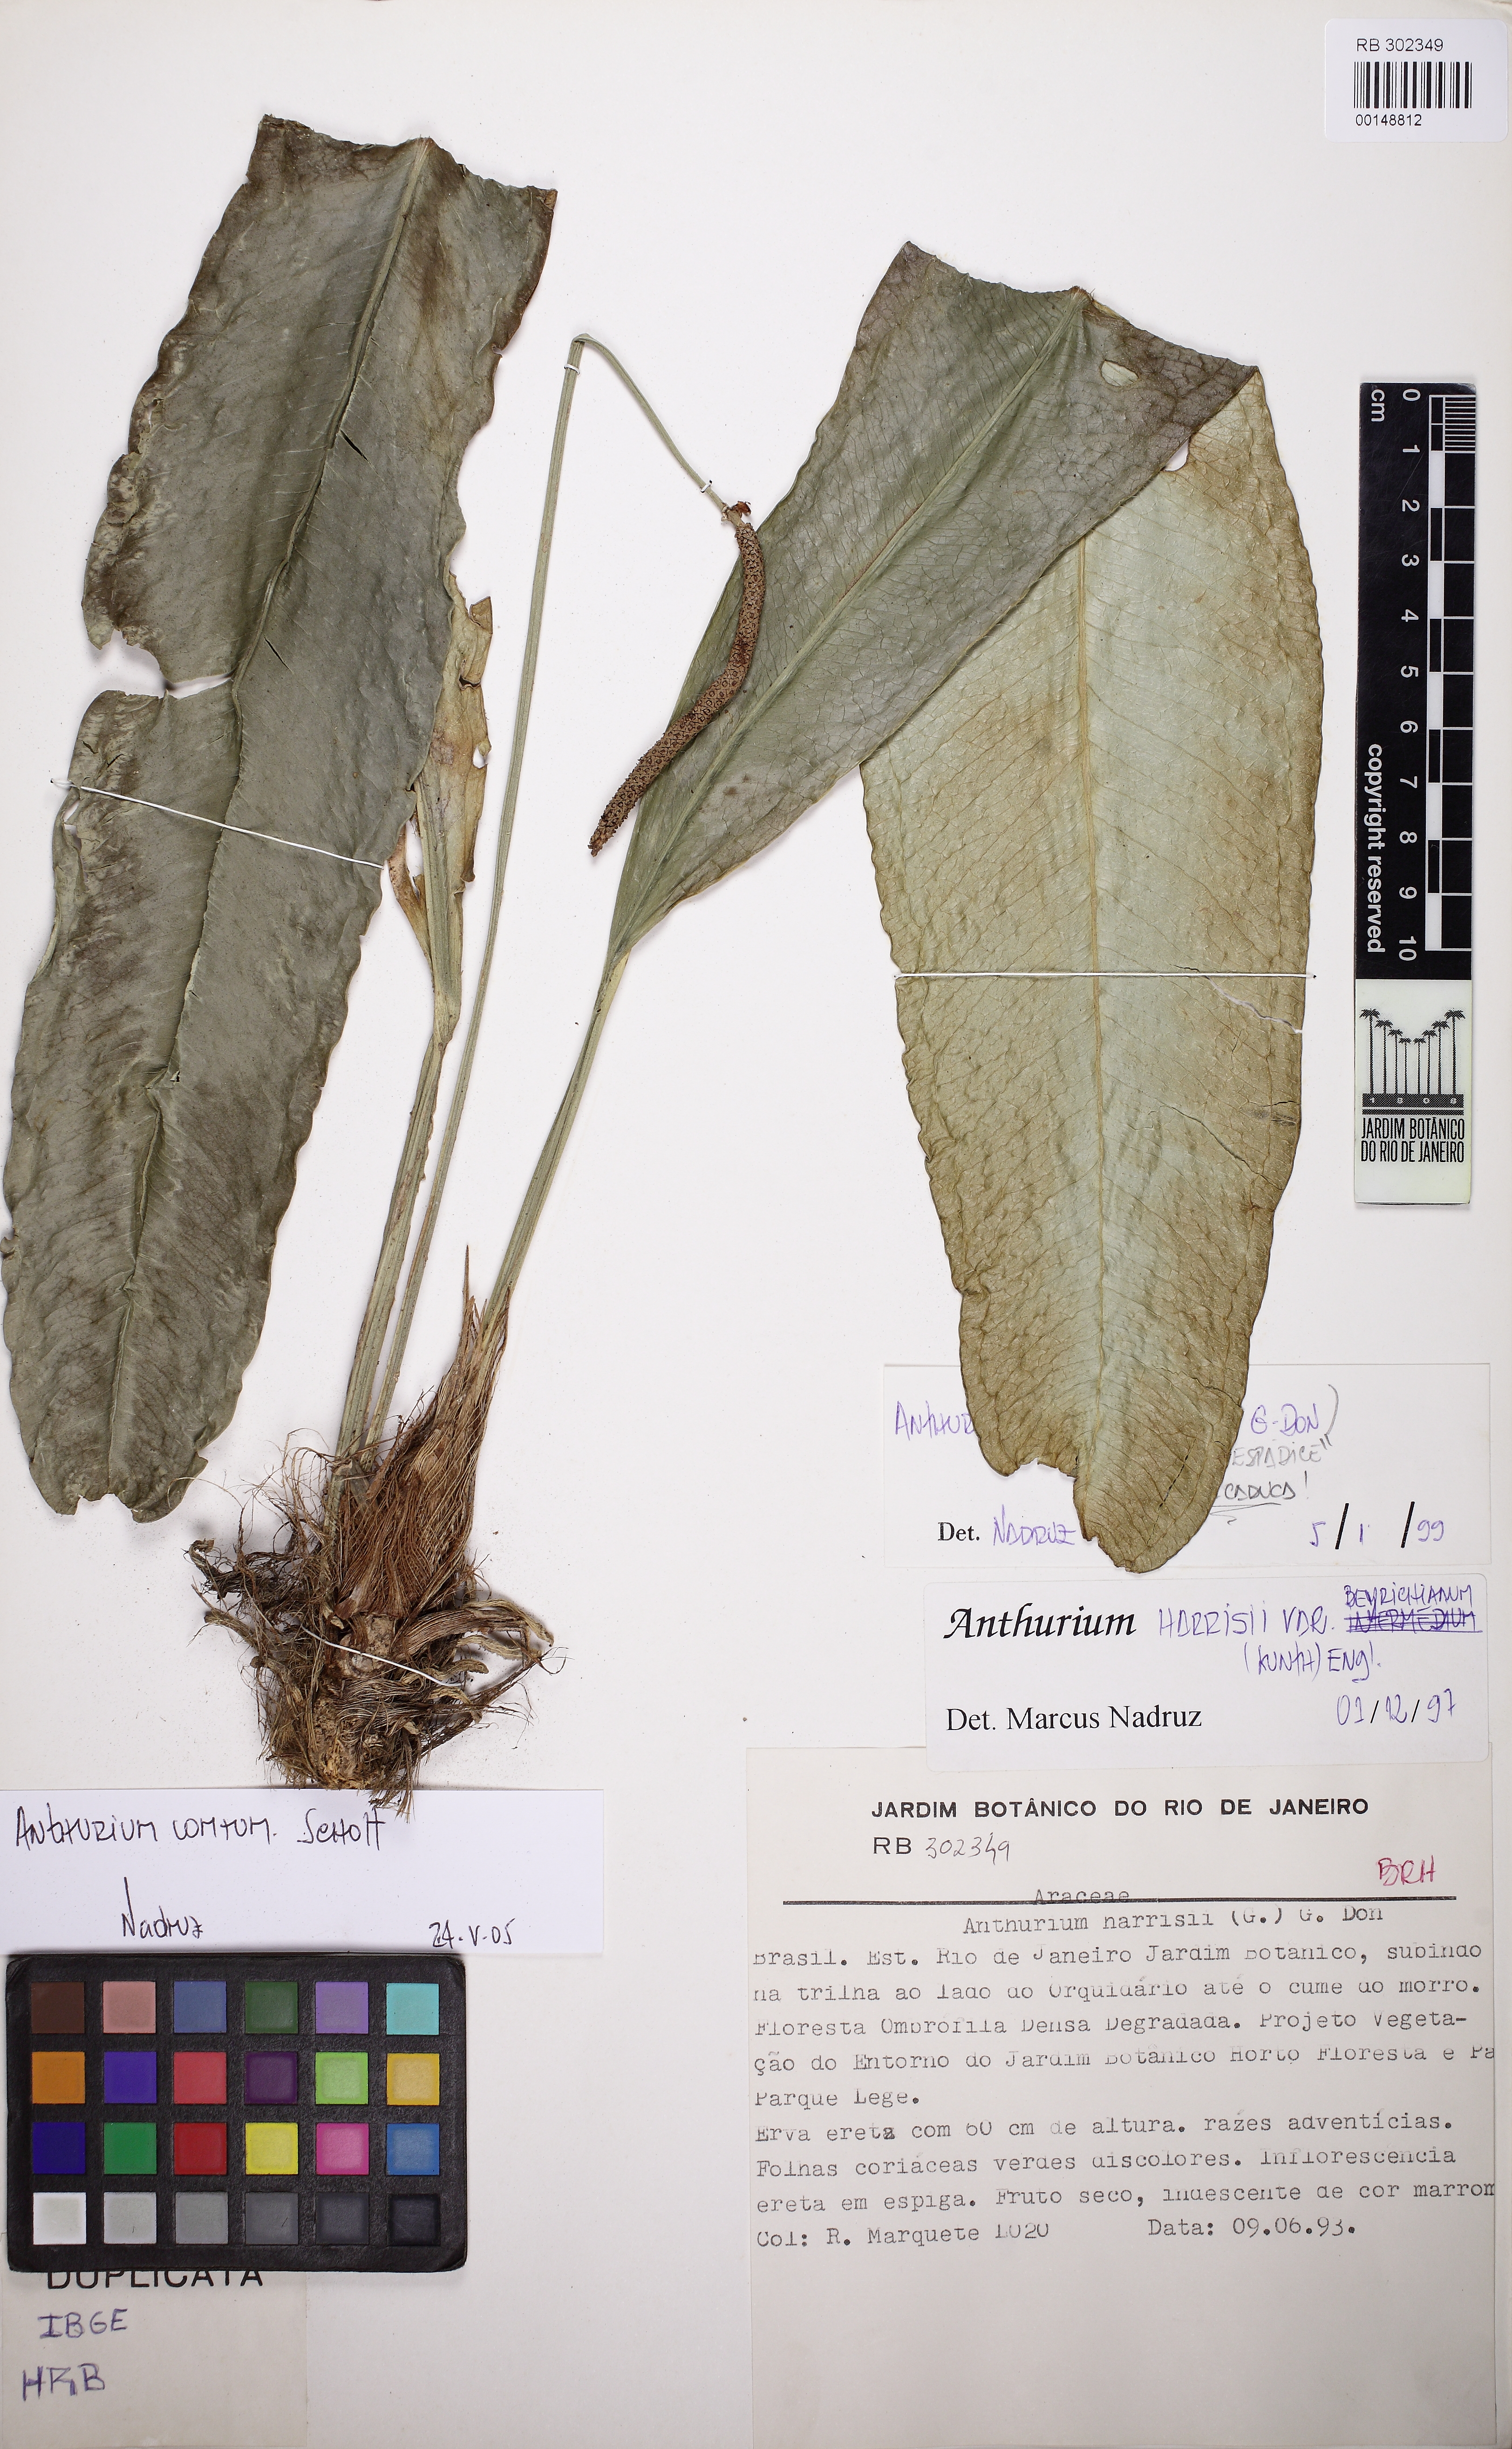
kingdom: Plantae
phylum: Tracheophyta
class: Liliopsida
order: Alismatales
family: Araceae
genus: Anthurium
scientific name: Anthurium comtum
